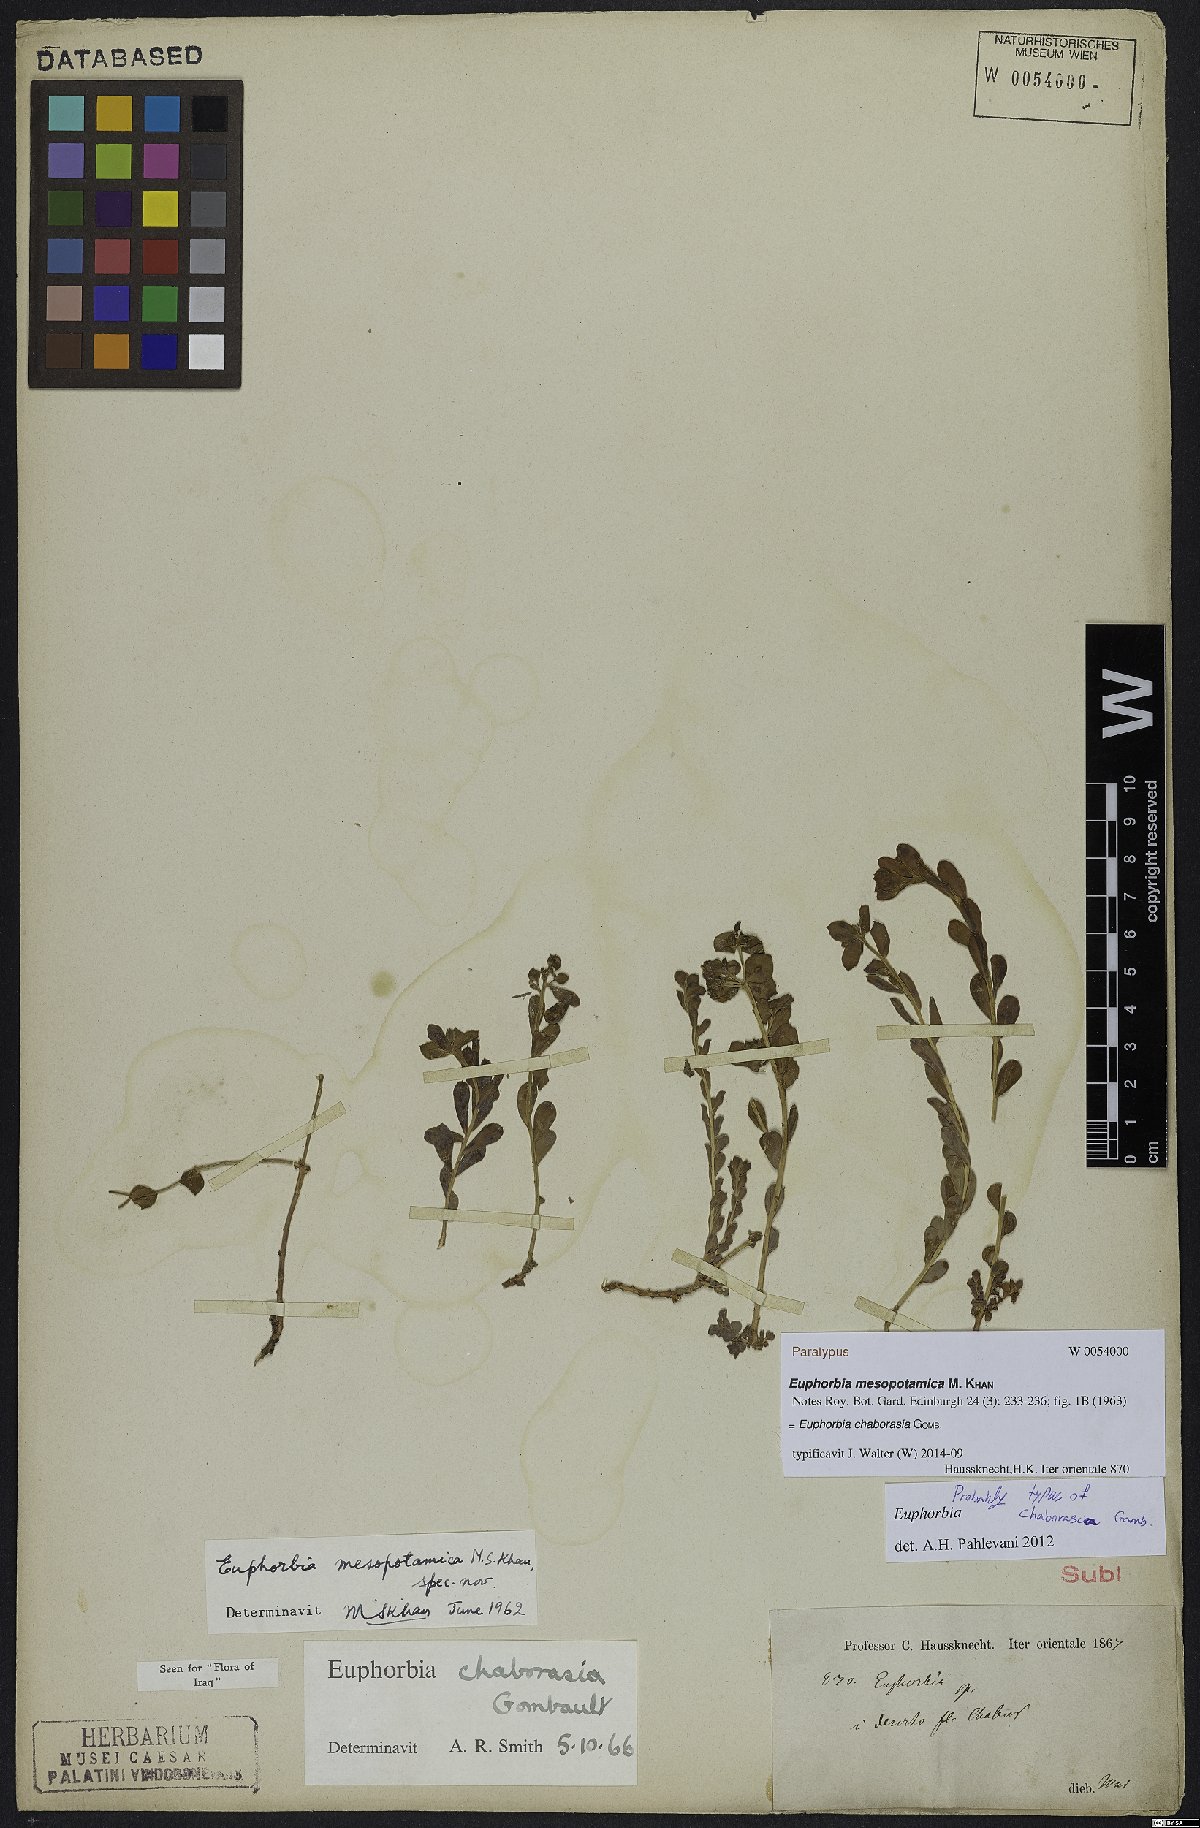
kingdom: Plantae
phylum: Tracheophyta
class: Magnoliopsida
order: Malpighiales
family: Euphorbiaceae
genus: Euphorbia
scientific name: Euphorbia chaborasia
